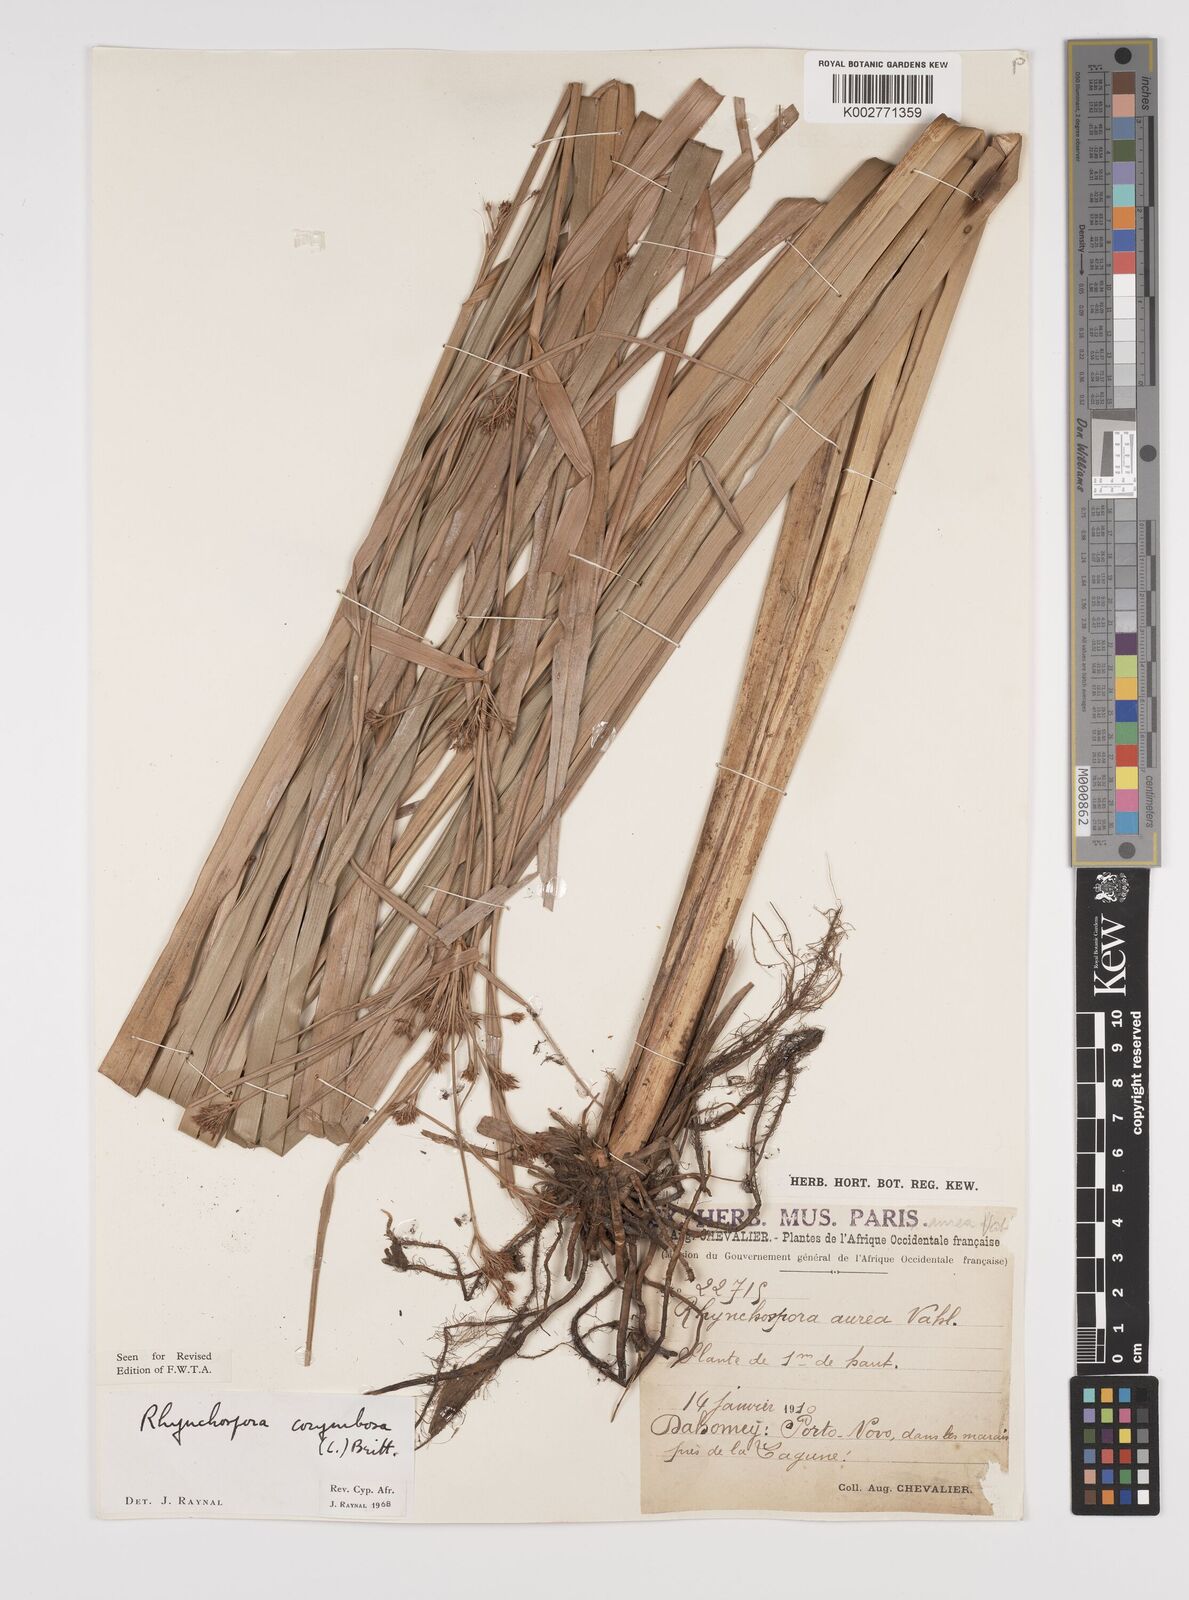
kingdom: Plantae
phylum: Tracheophyta
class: Liliopsida
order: Poales
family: Cyperaceae
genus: Rhynchospora
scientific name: Rhynchospora corymbosa
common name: Golden beak sedge
